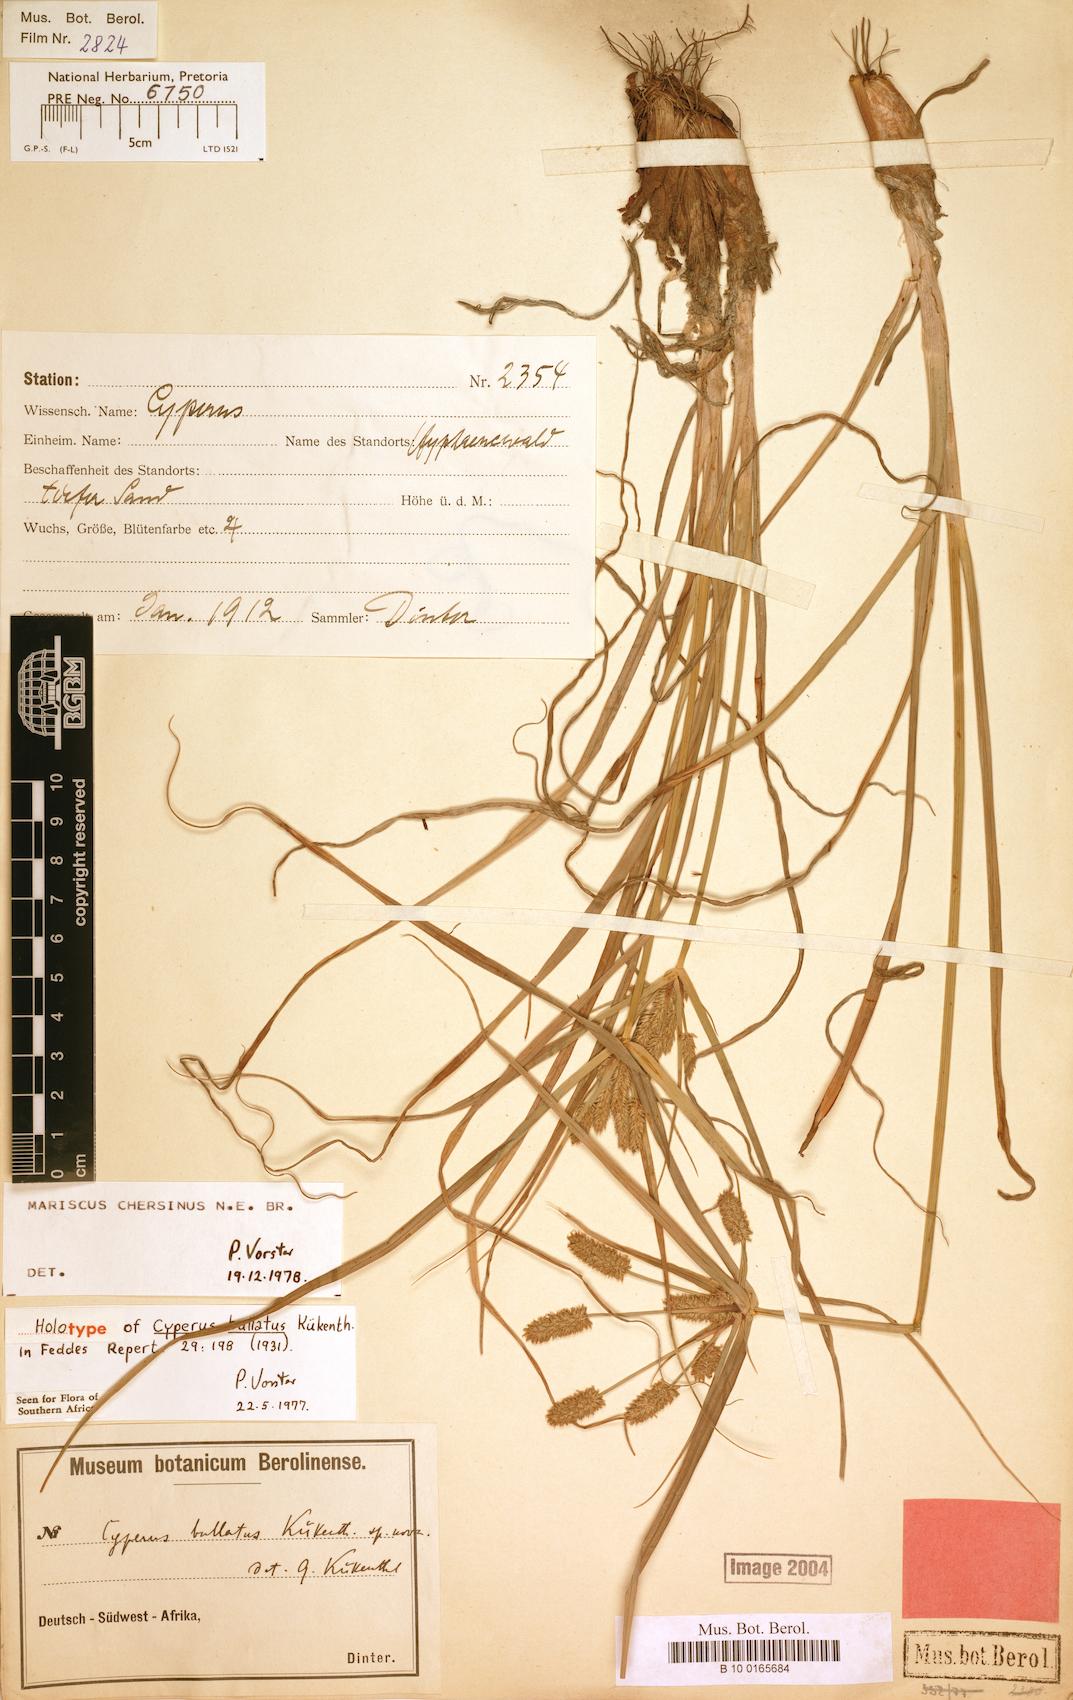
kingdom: Plantae
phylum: Tracheophyta
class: Liliopsida
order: Poales
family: Cyperaceae
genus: Cyperus
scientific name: Cyperus chersinus
